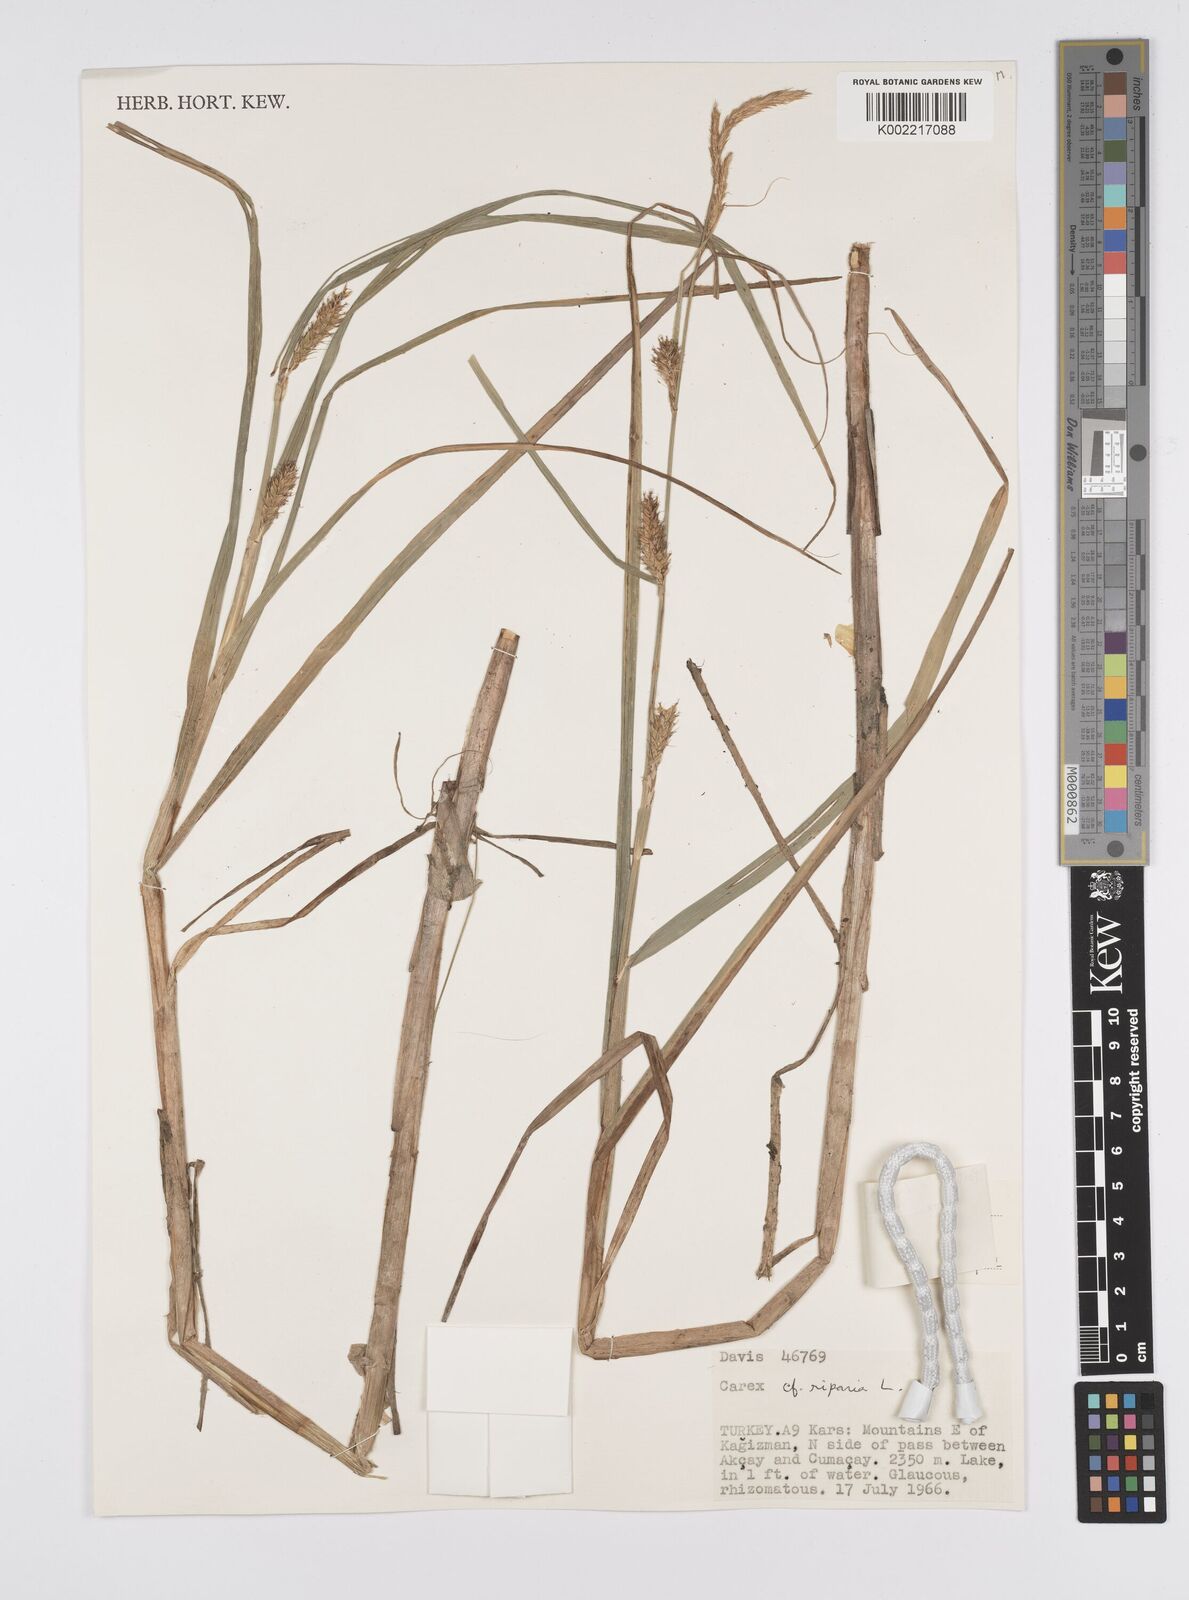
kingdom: Plantae
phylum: Tracheophyta
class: Liliopsida
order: Poales
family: Cyperaceae
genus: Carex
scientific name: Carex vesicaria
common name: Bladder-sedge
